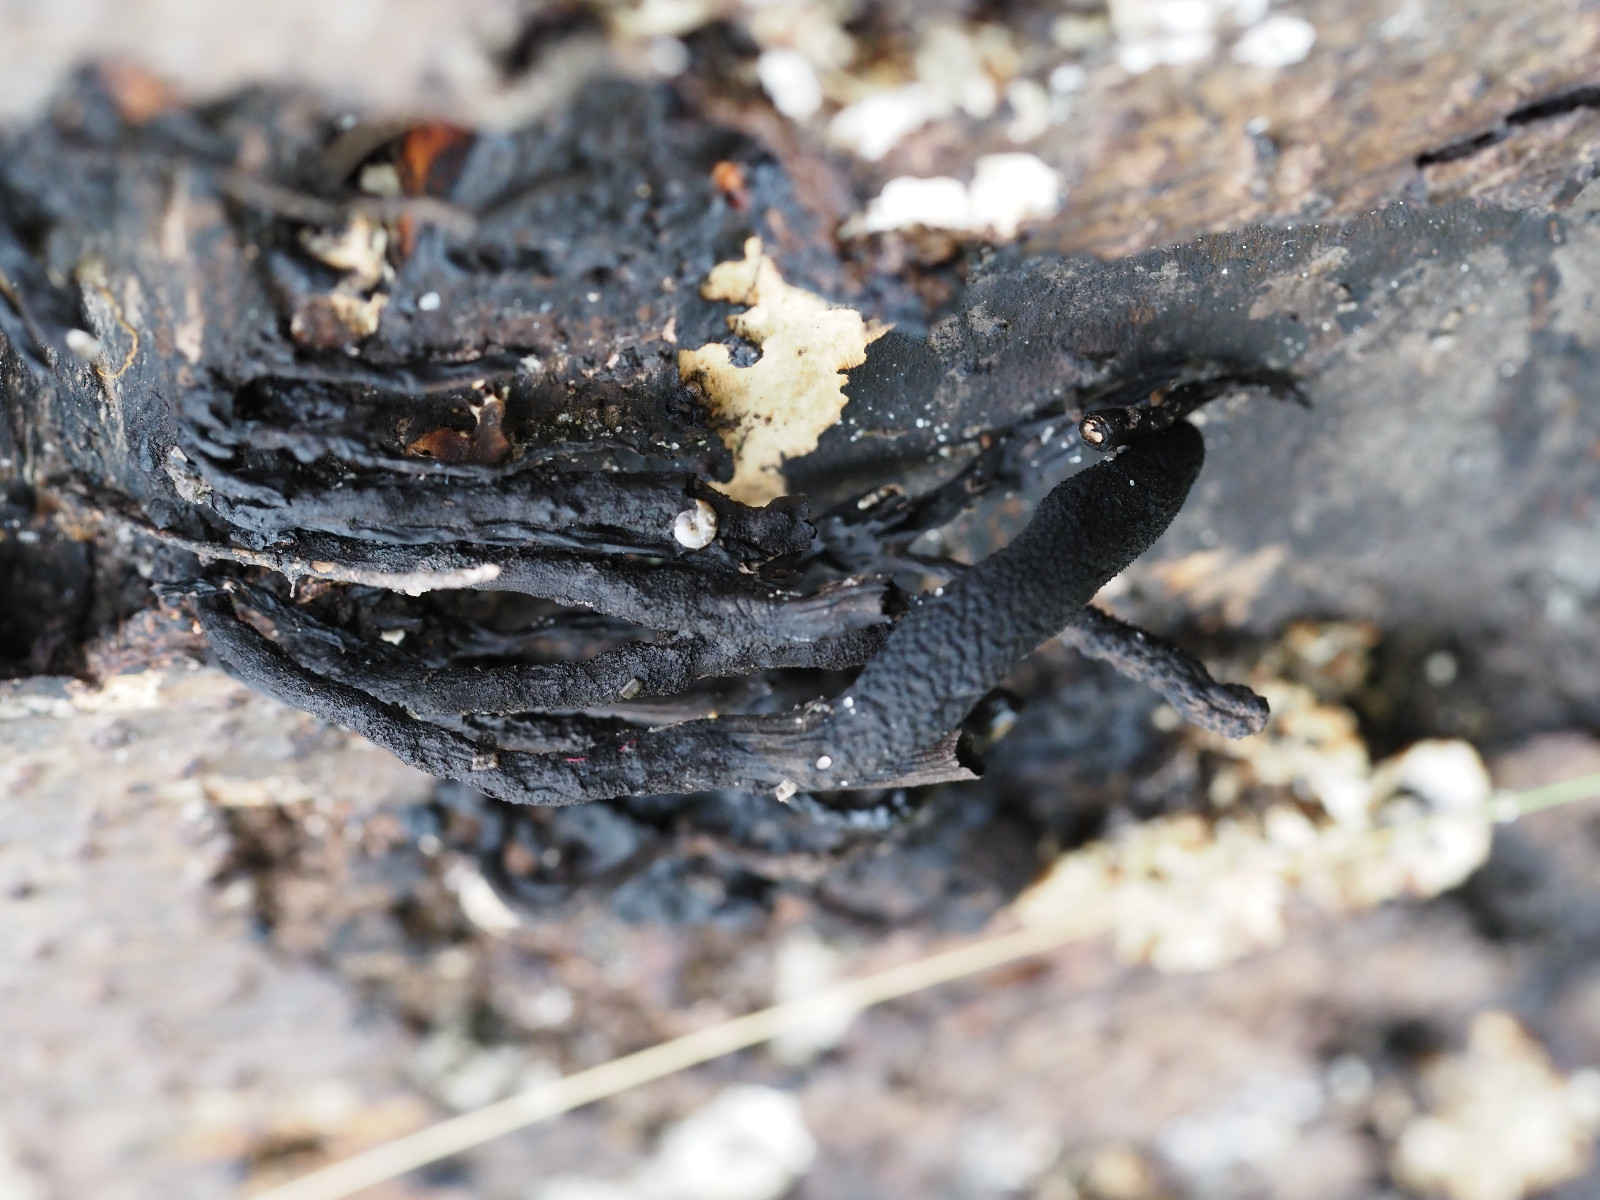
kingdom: Fungi
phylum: Ascomycota
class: Sordariomycetes
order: Xylariales
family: Xylariaceae
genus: Xylaria
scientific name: Xylaria longipes
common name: slank stødsvamp
